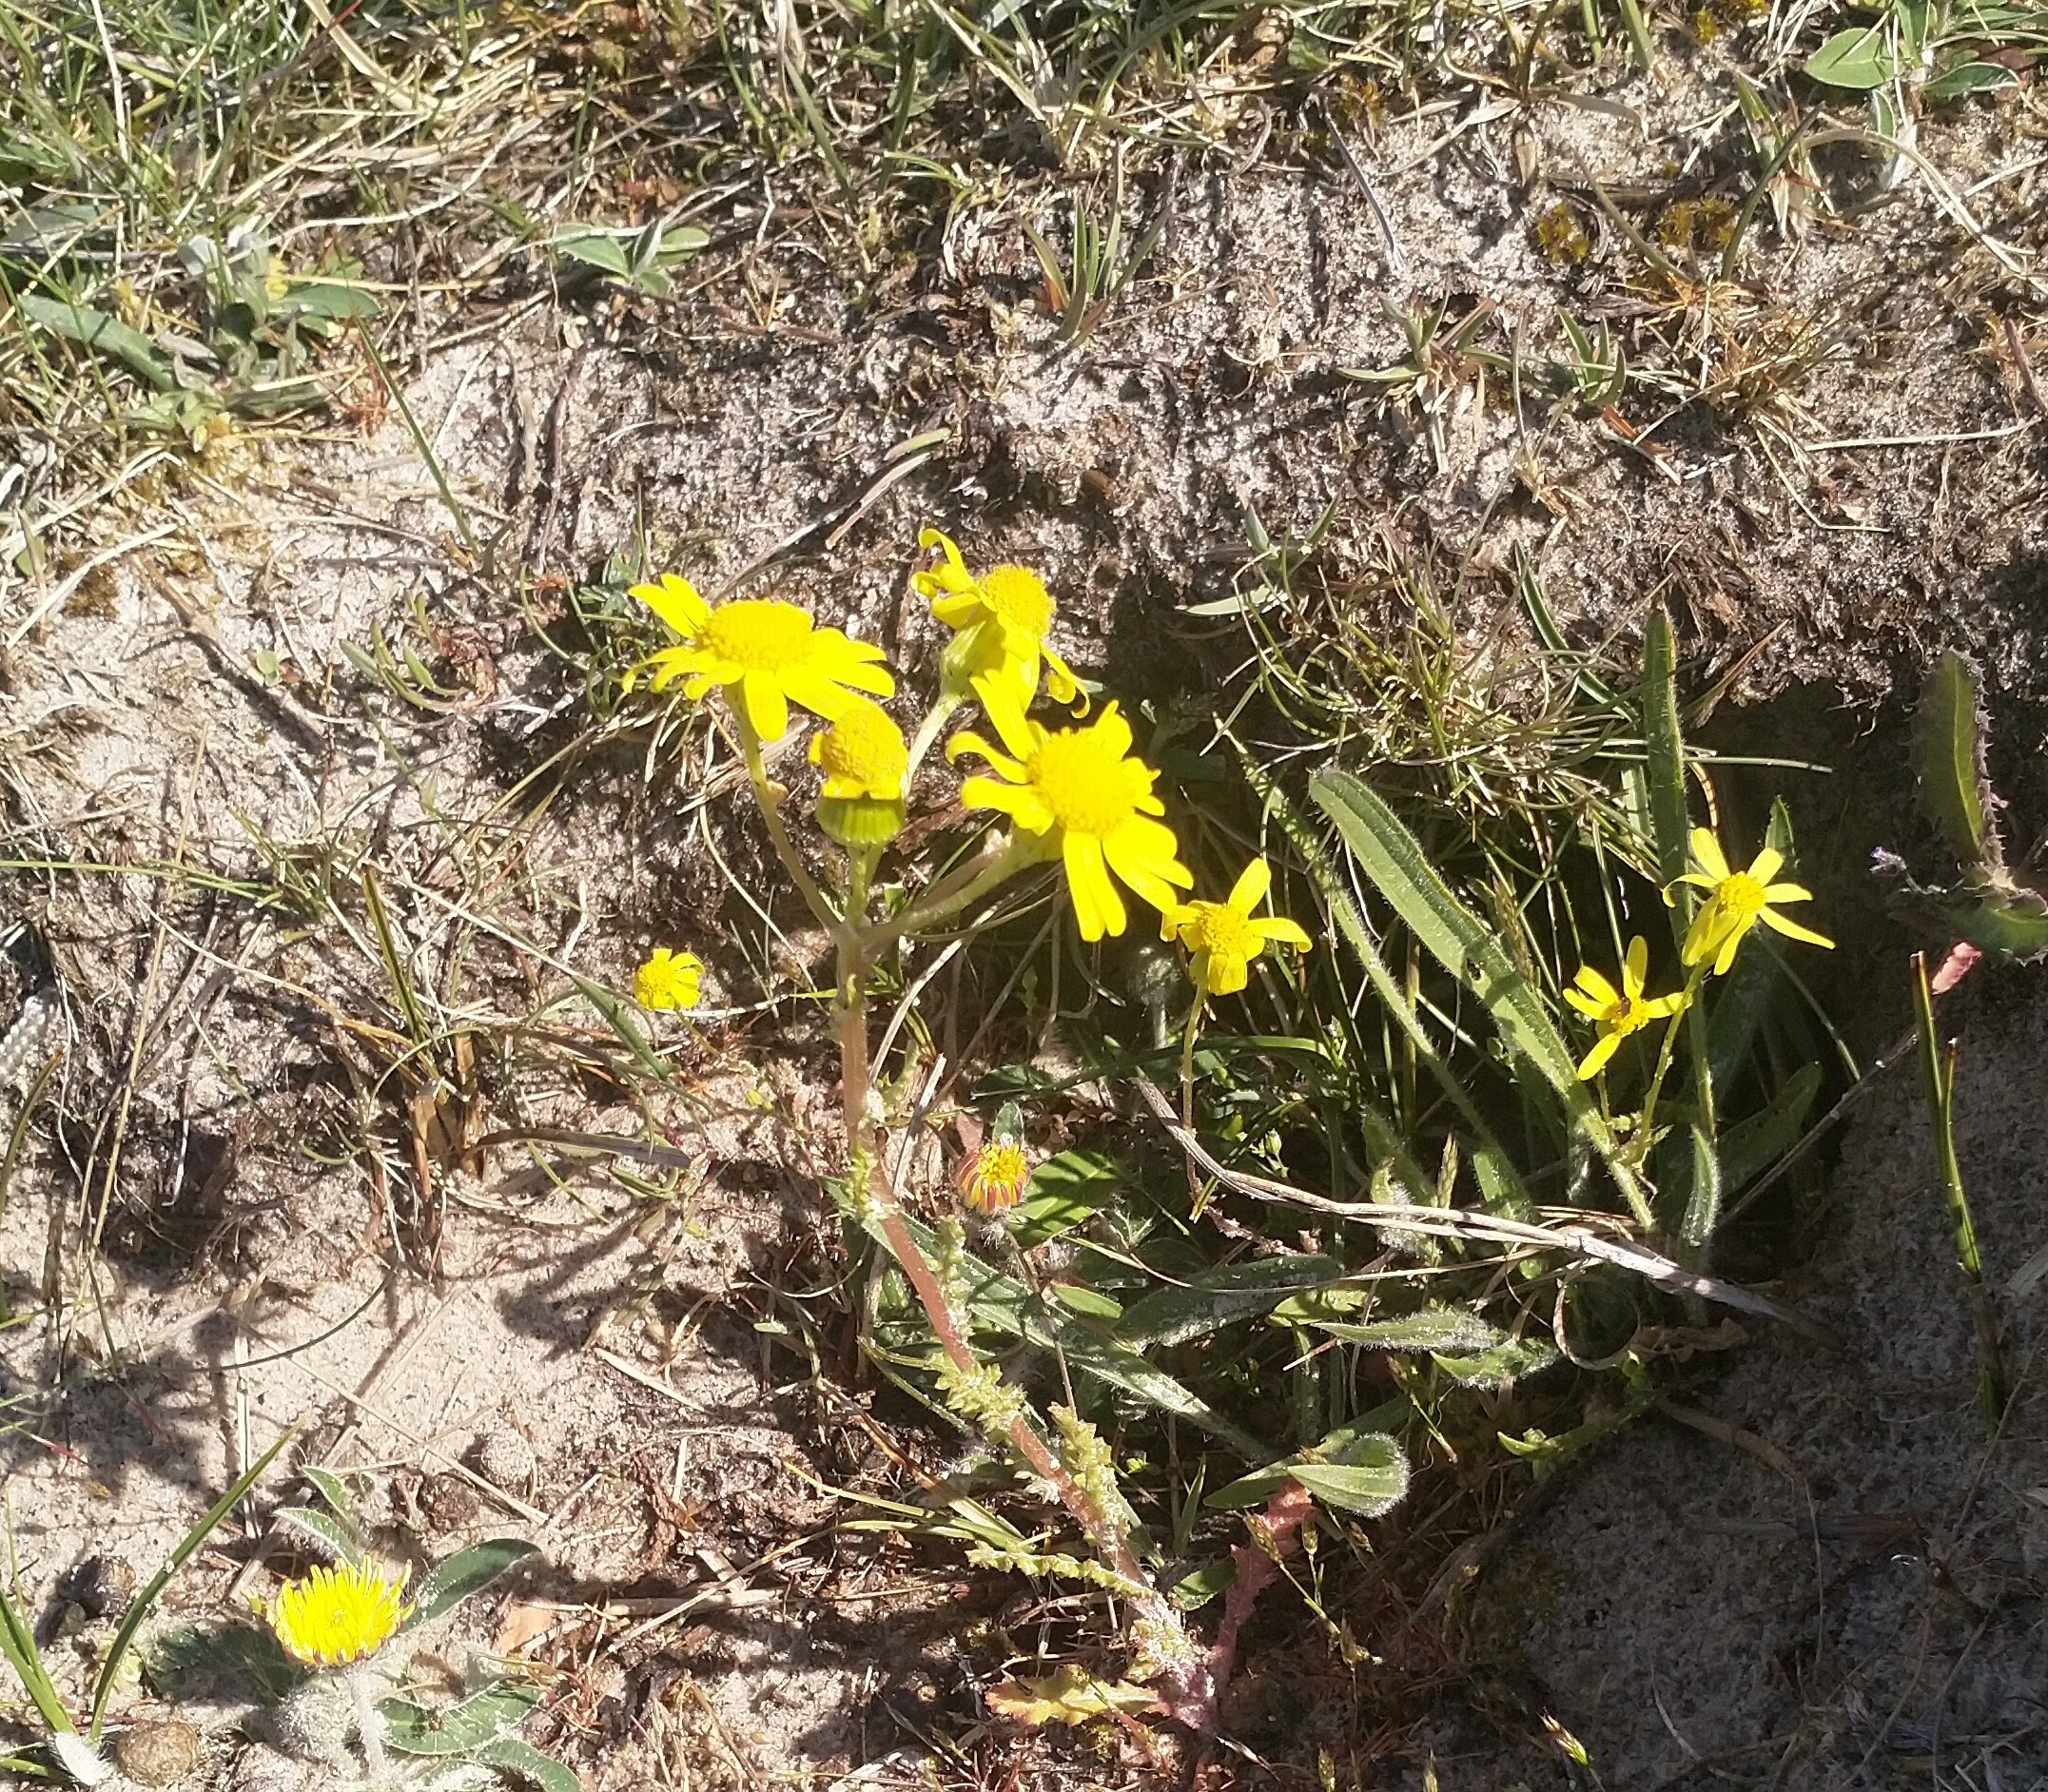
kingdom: Plantae
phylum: Tracheophyta
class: Magnoliopsida
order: Asterales
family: Asteraceae
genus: Senecio
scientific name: Senecio leucanthemifolius
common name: Vår-brandbæger
